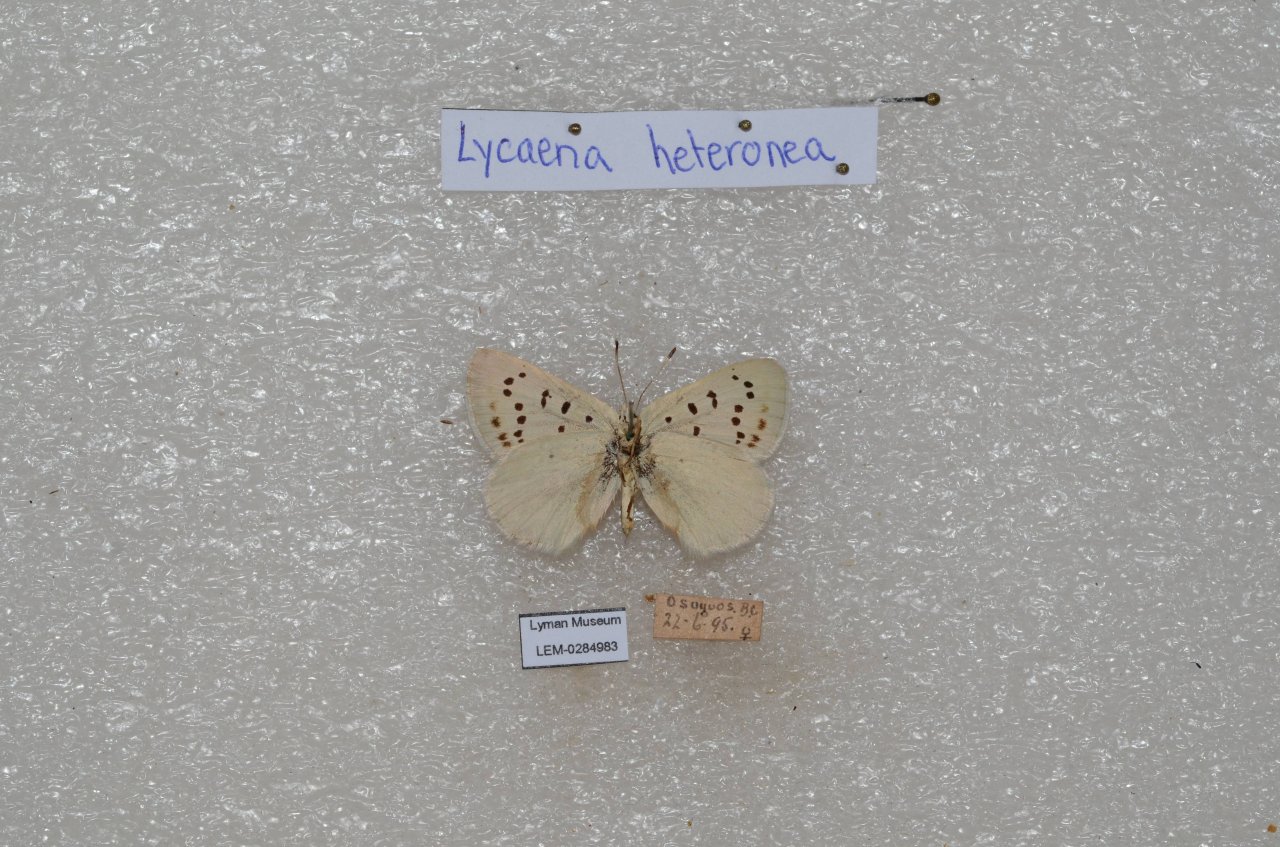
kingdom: Animalia
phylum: Arthropoda
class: Insecta
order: Lepidoptera
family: Lycaenidae
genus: Lycaena
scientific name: Lycaena heteronea
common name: Blue Copper
